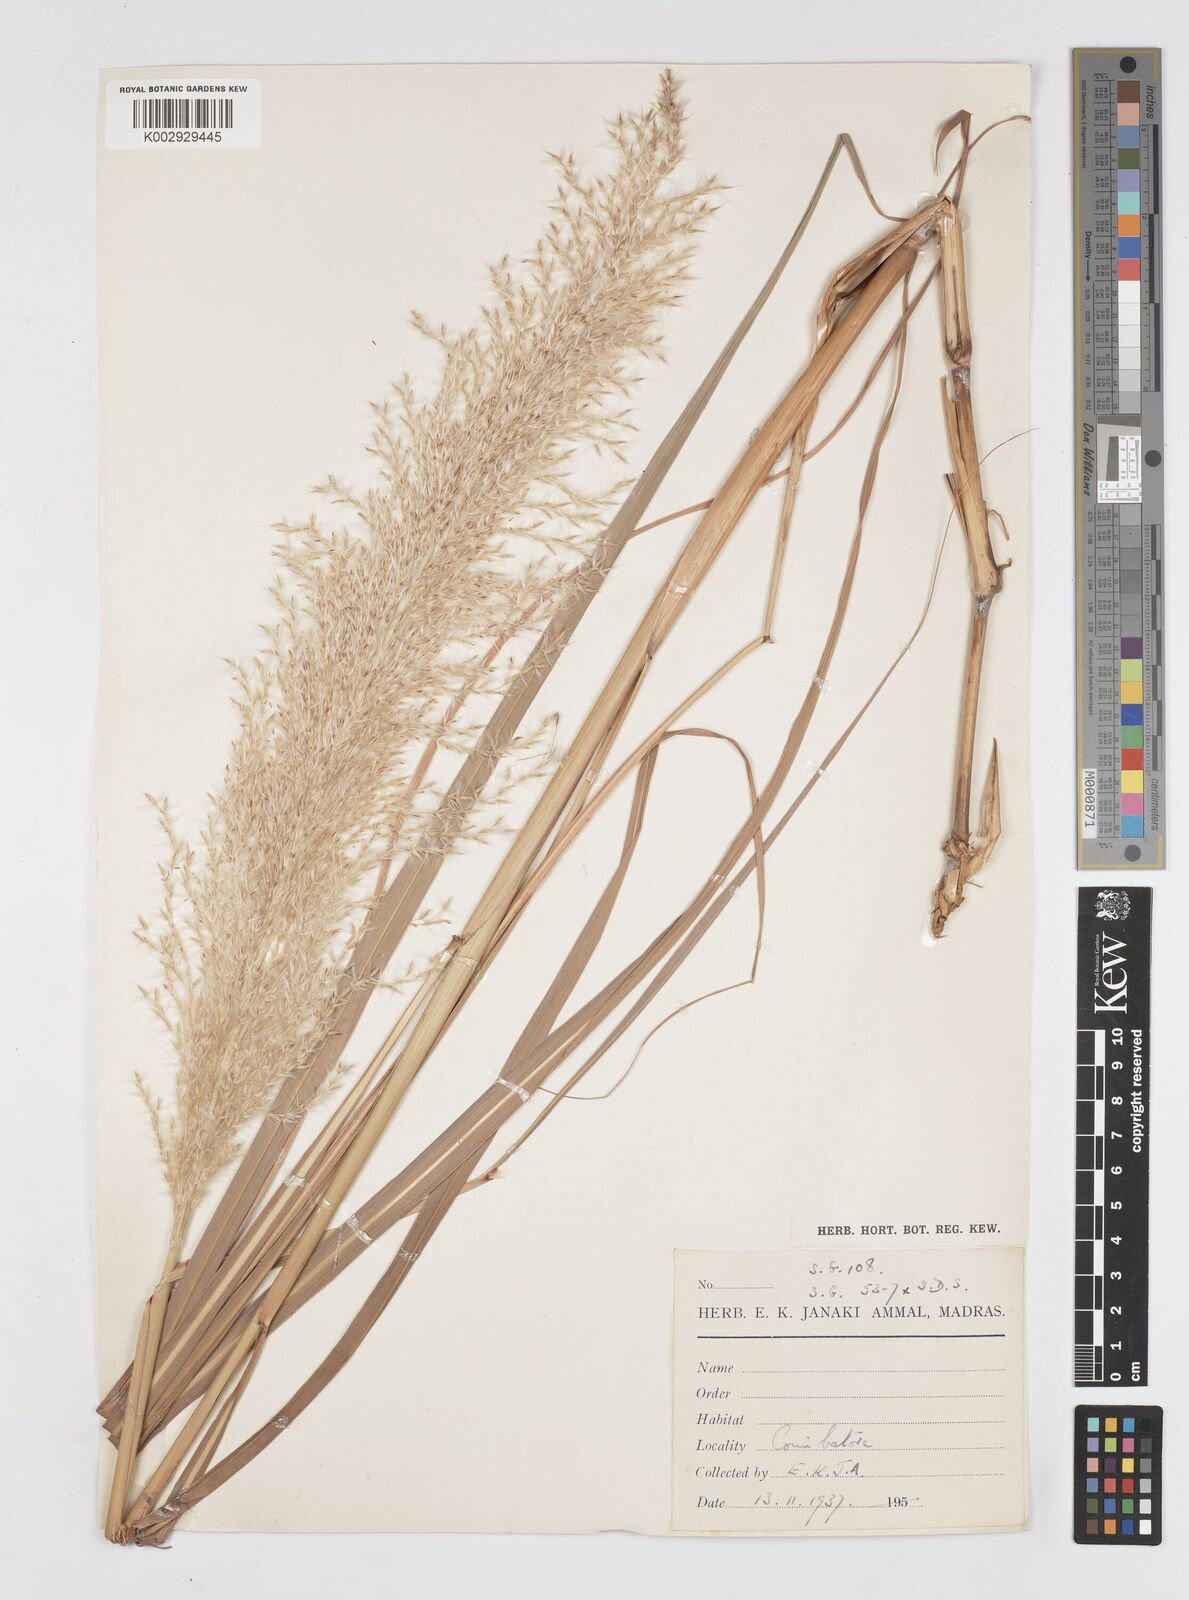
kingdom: Plantae
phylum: Tracheophyta
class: Liliopsida
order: Poales
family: Poaceae
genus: Saccharum
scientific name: Saccharum
